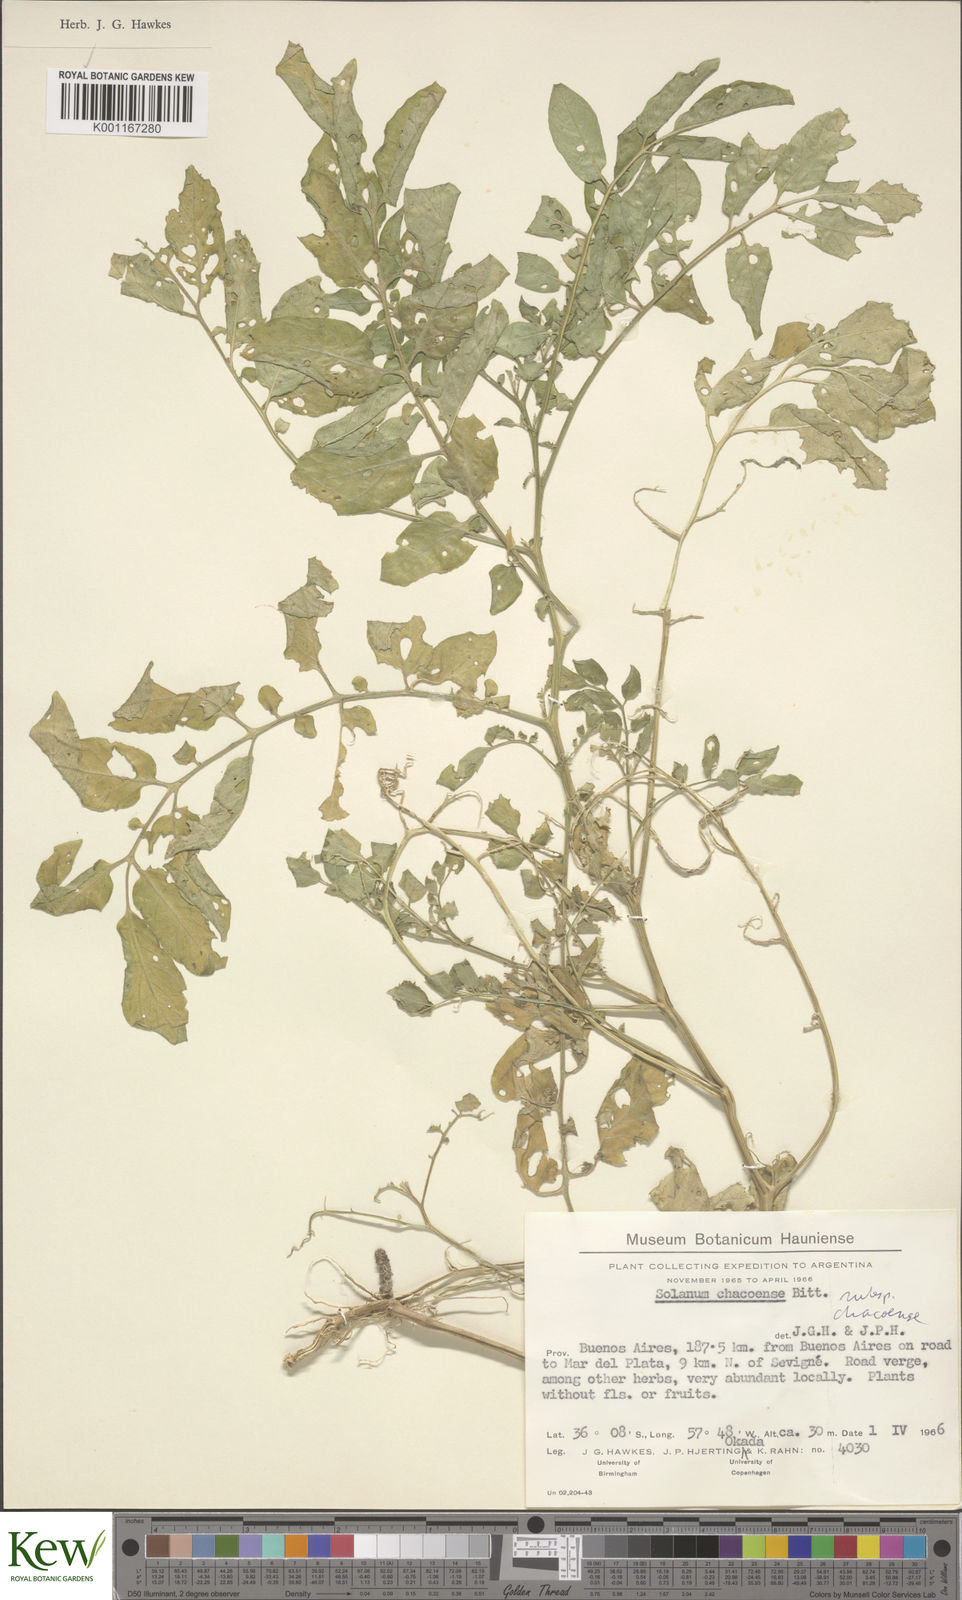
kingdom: Plantae
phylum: Tracheophyta
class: Magnoliopsida
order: Solanales
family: Solanaceae
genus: Solanum
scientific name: Solanum chacoense
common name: Chaco potato
